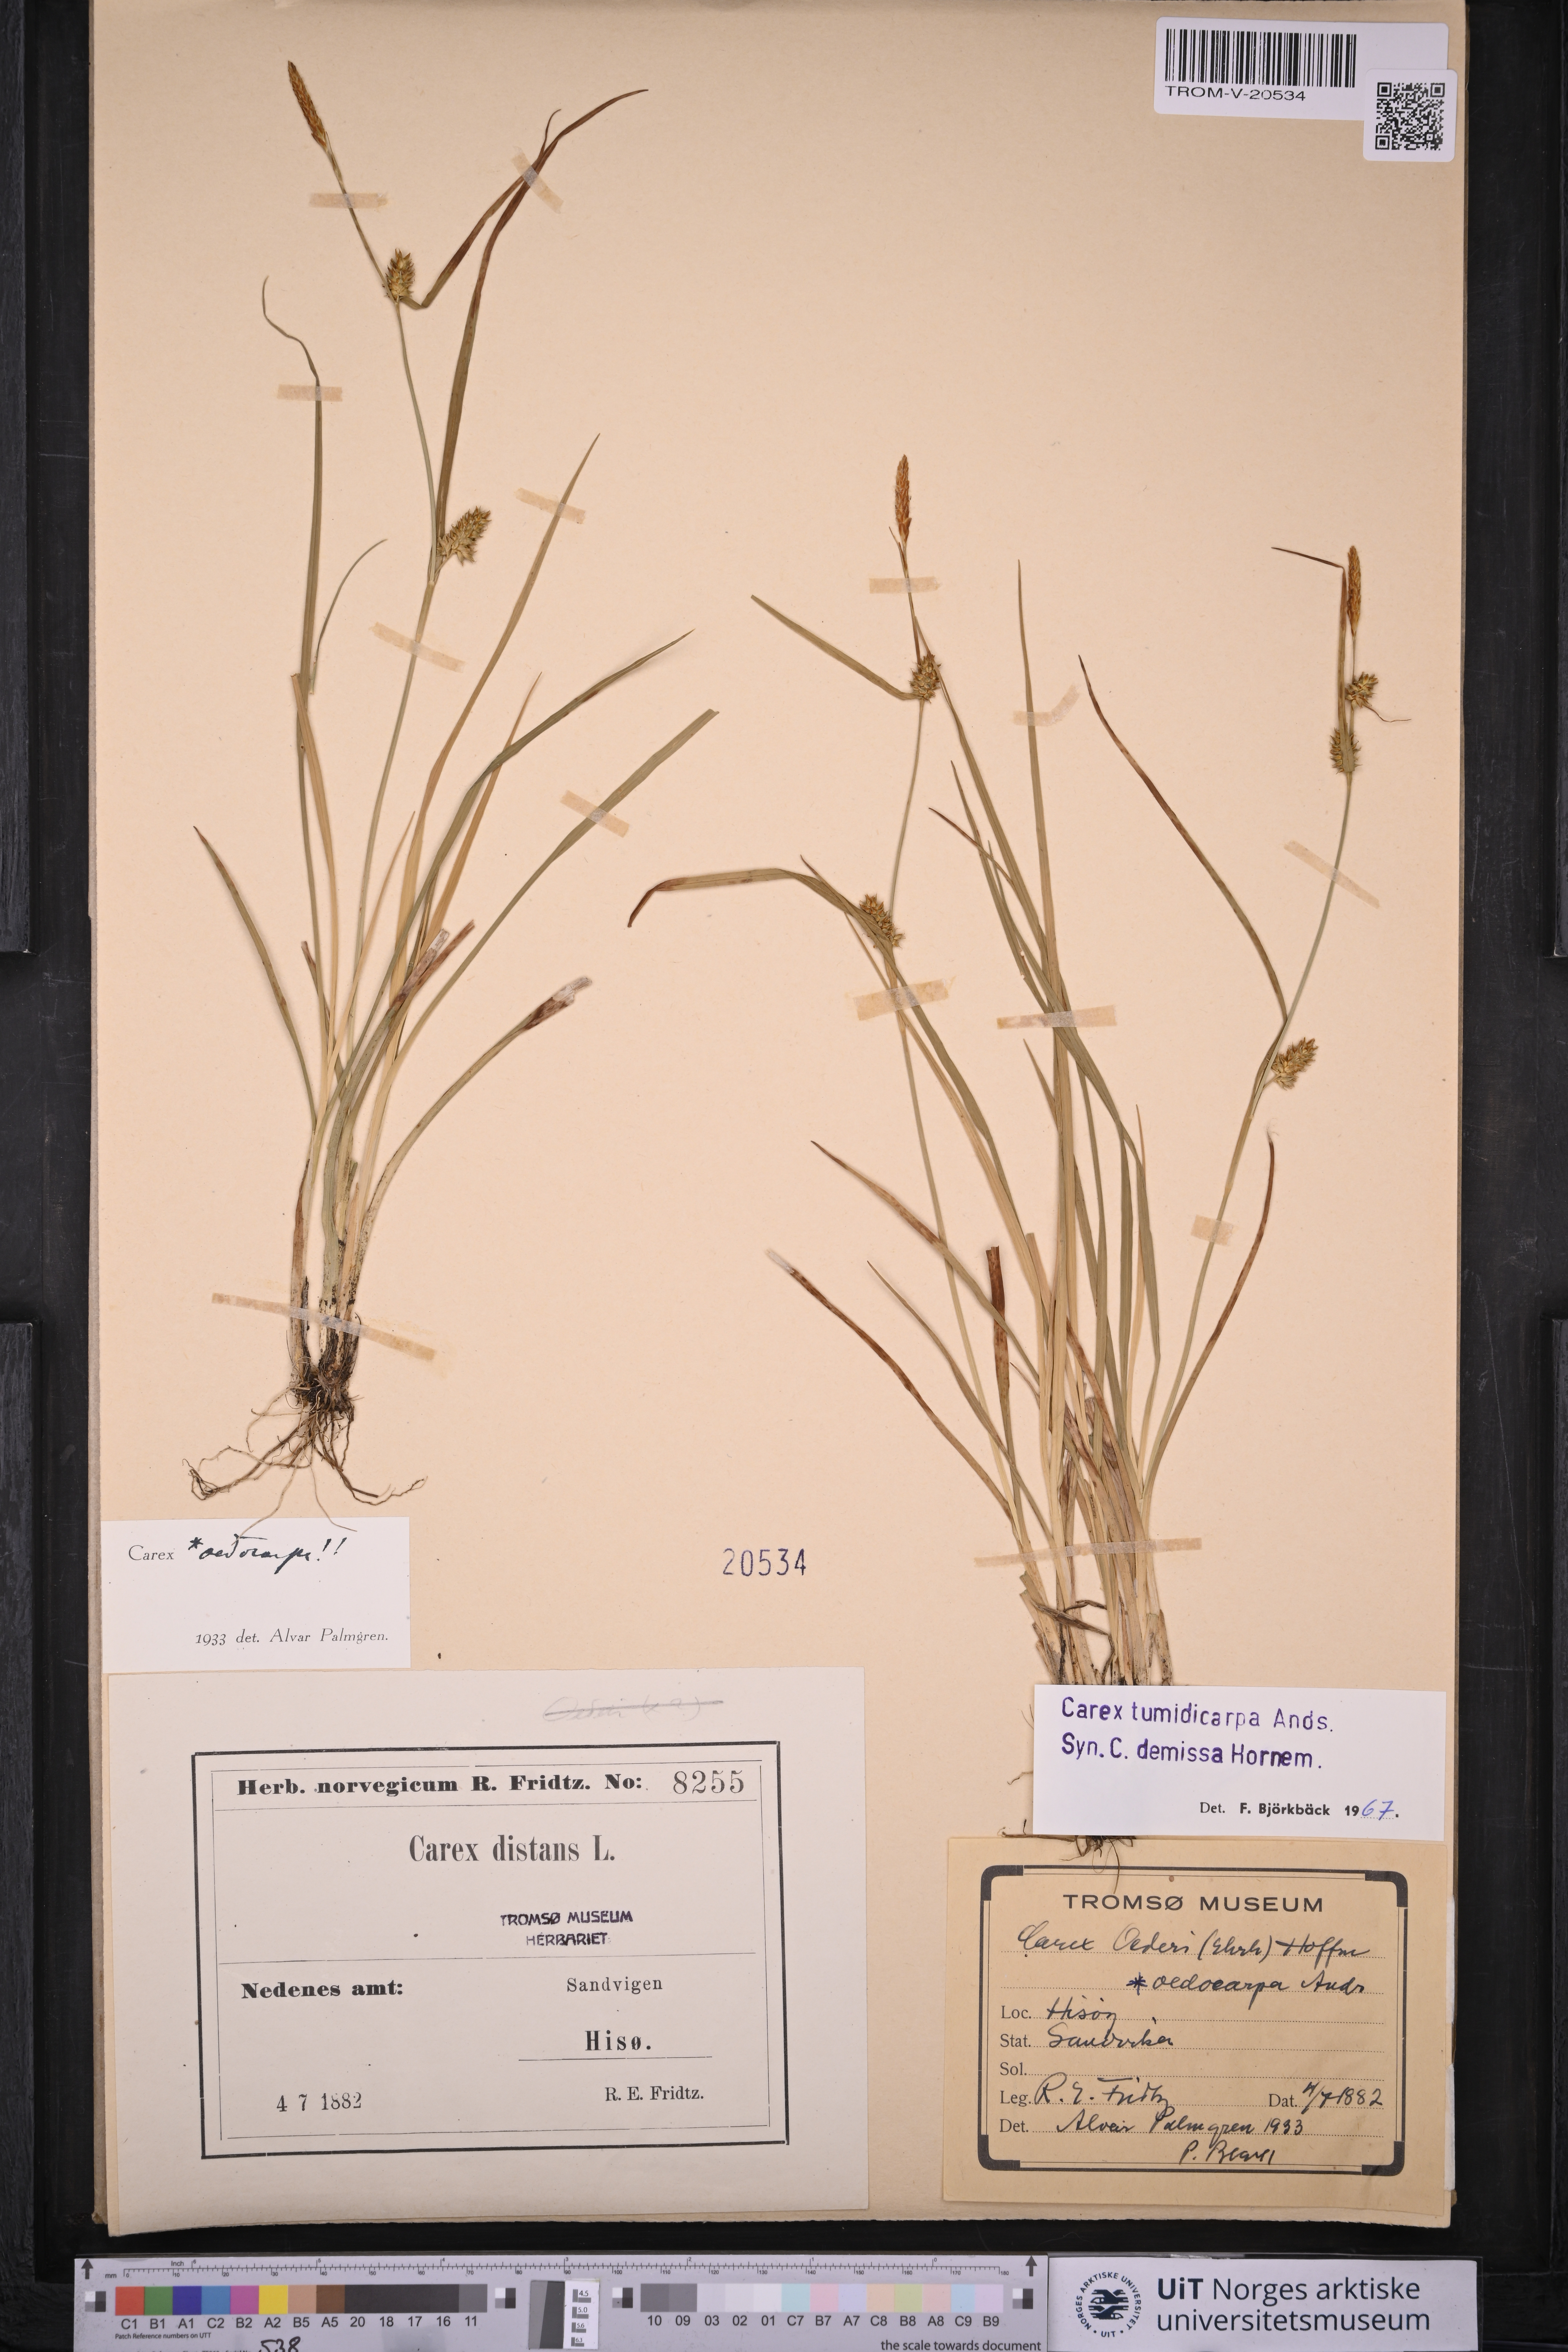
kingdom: Plantae
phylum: Tracheophyta
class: Liliopsida
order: Poales
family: Cyperaceae
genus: Carex
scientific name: Carex demissa
